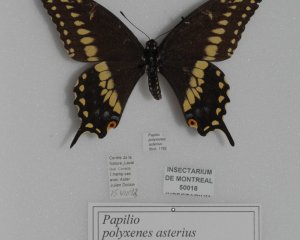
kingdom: Animalia
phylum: Arthropoda
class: Insecta
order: Lepidoptera
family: Papilionidae
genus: Papilio
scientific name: Papilio polyxenes
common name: Black Swallowtail
